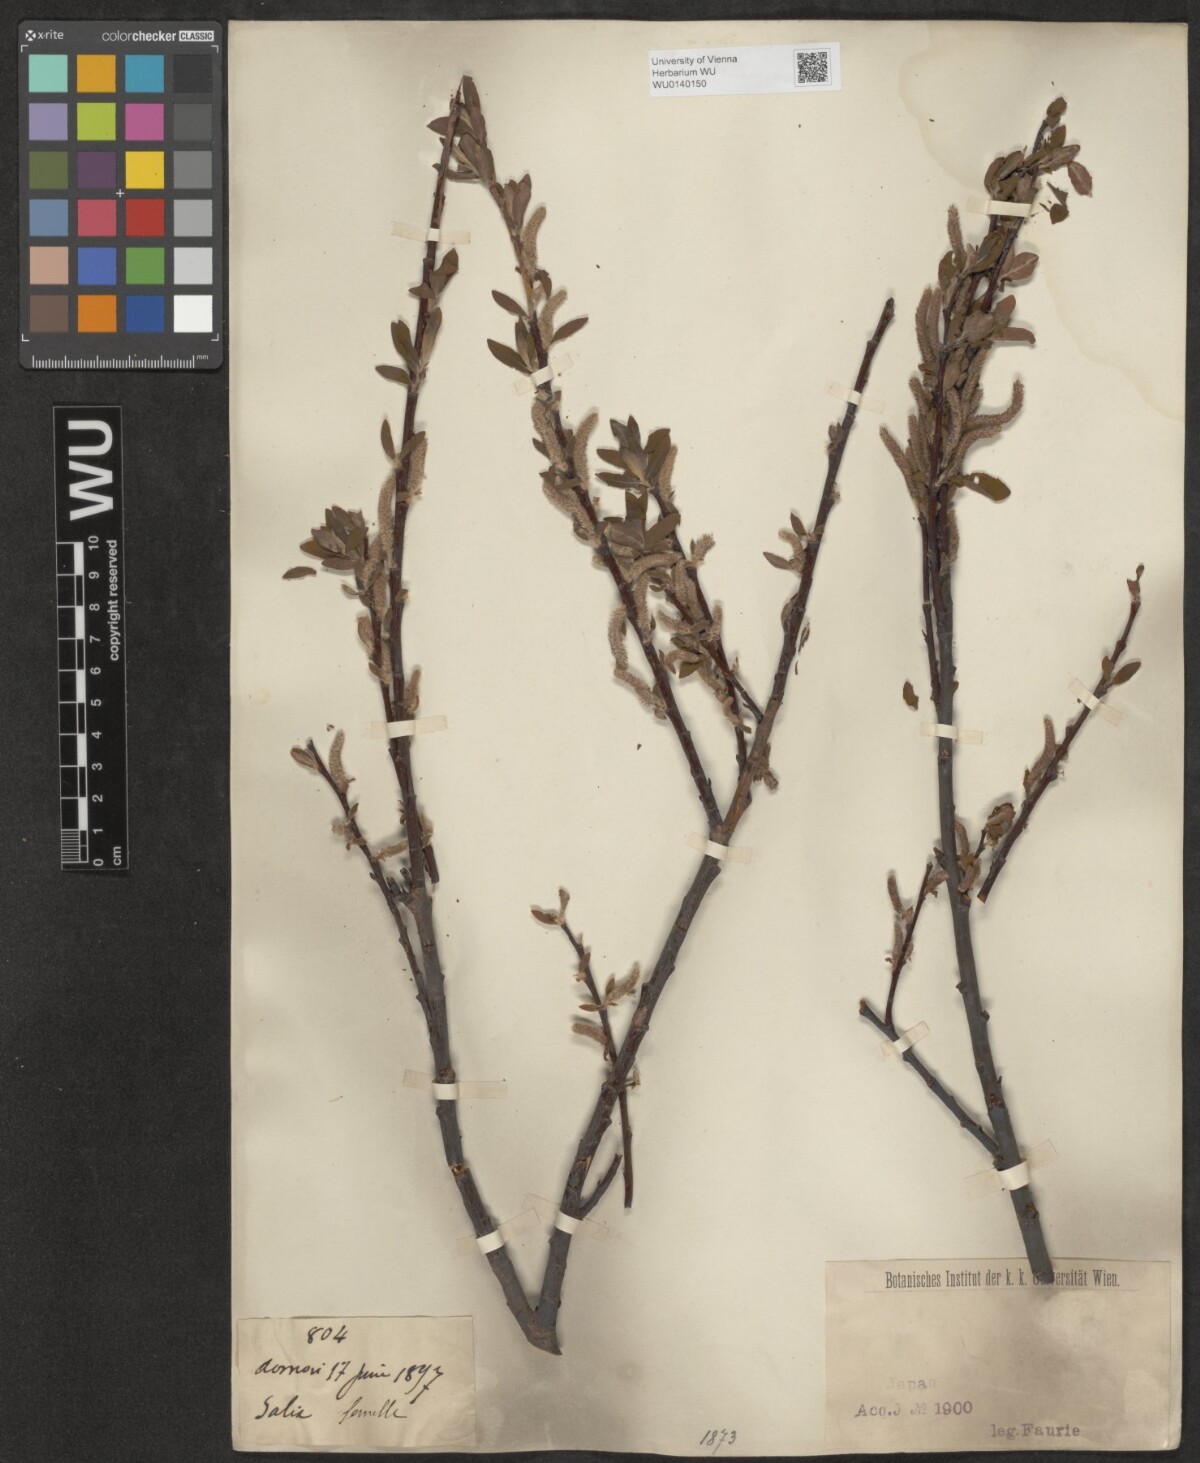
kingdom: Plantae
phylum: Tracheophyta
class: Magnoliopsida
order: Malpighiales
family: Salicaceae
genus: Salix
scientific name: Salix
